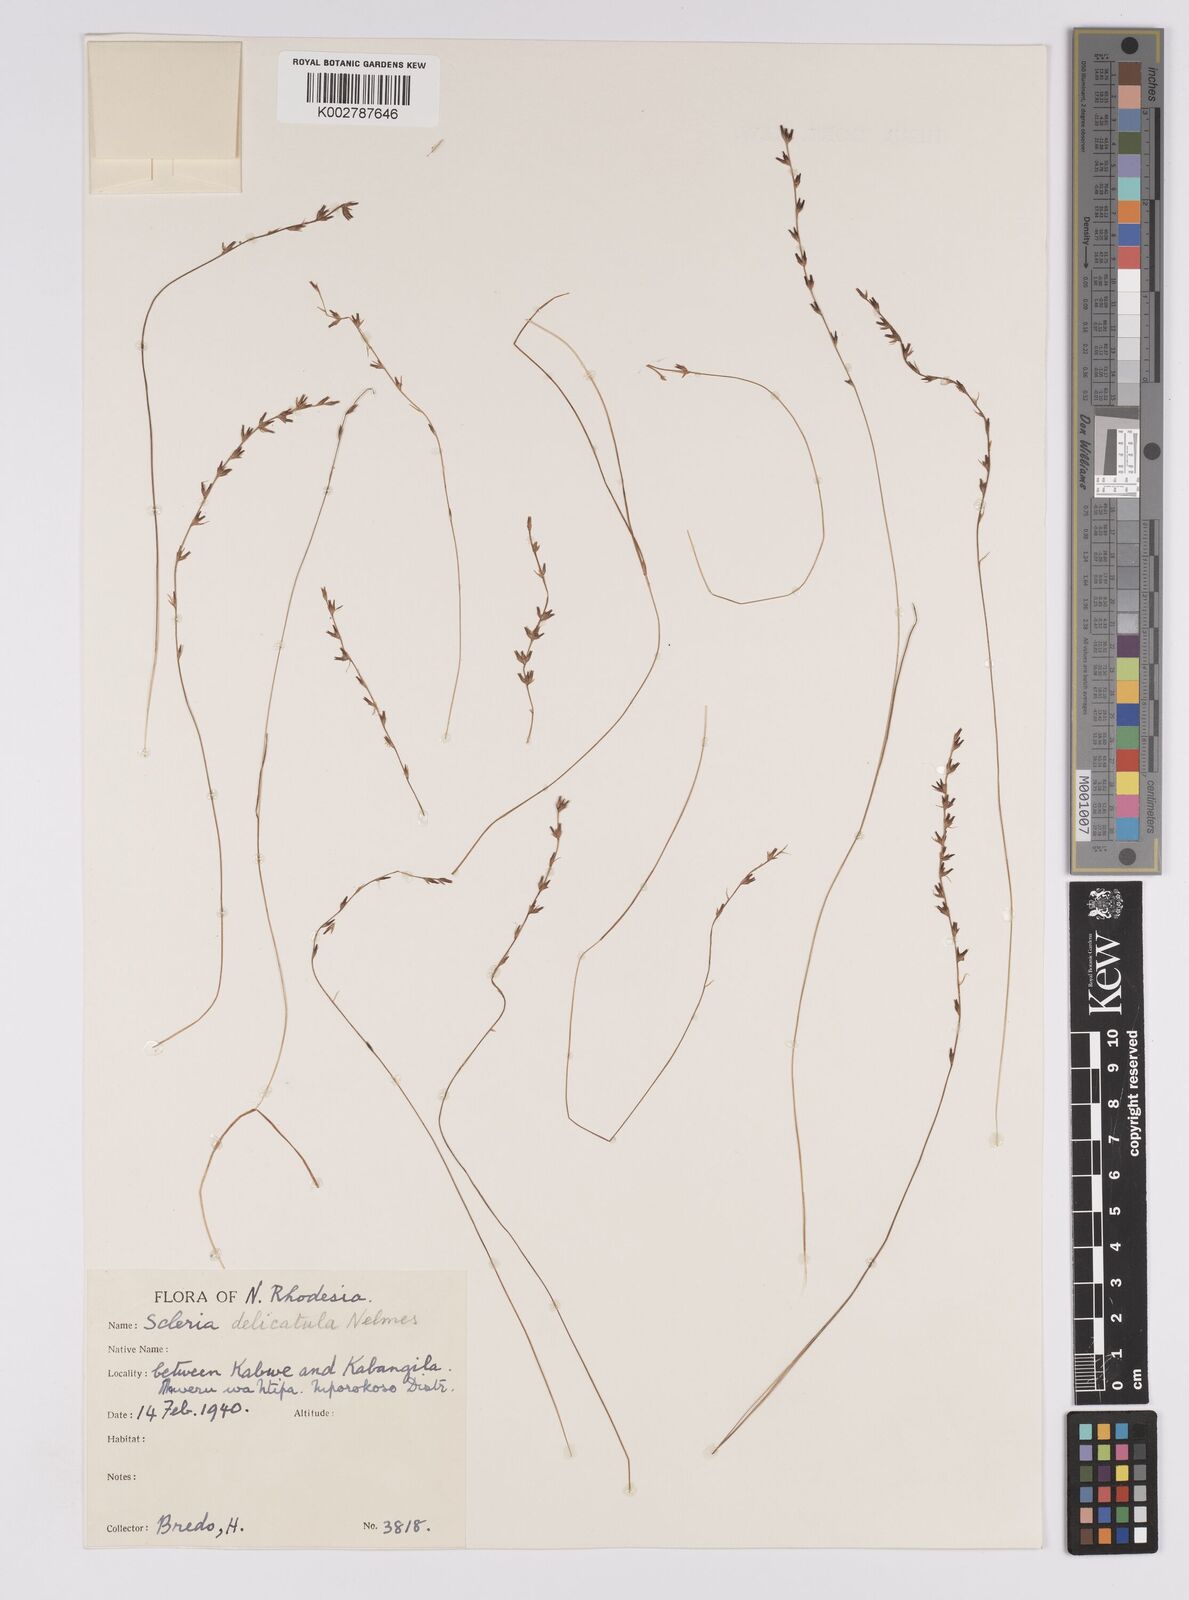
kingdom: Plantae
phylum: Tracheophyta
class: Liliopsida
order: Poales
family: Cyperaceae
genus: Scleria
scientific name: Scleria delicatula
